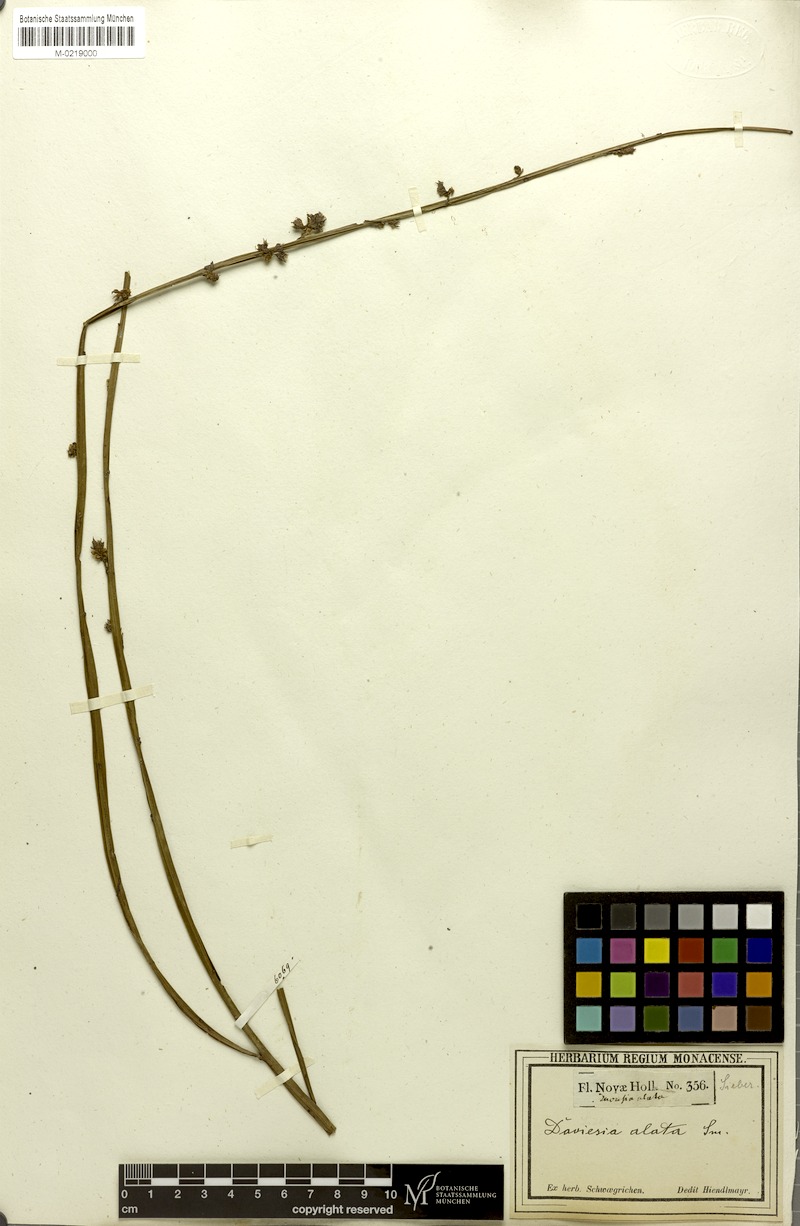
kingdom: Plantae
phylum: Tracheophyta
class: Magnoliopsida
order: Fabales
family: Fabaceae
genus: Daviesia
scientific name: Daviesia alata
